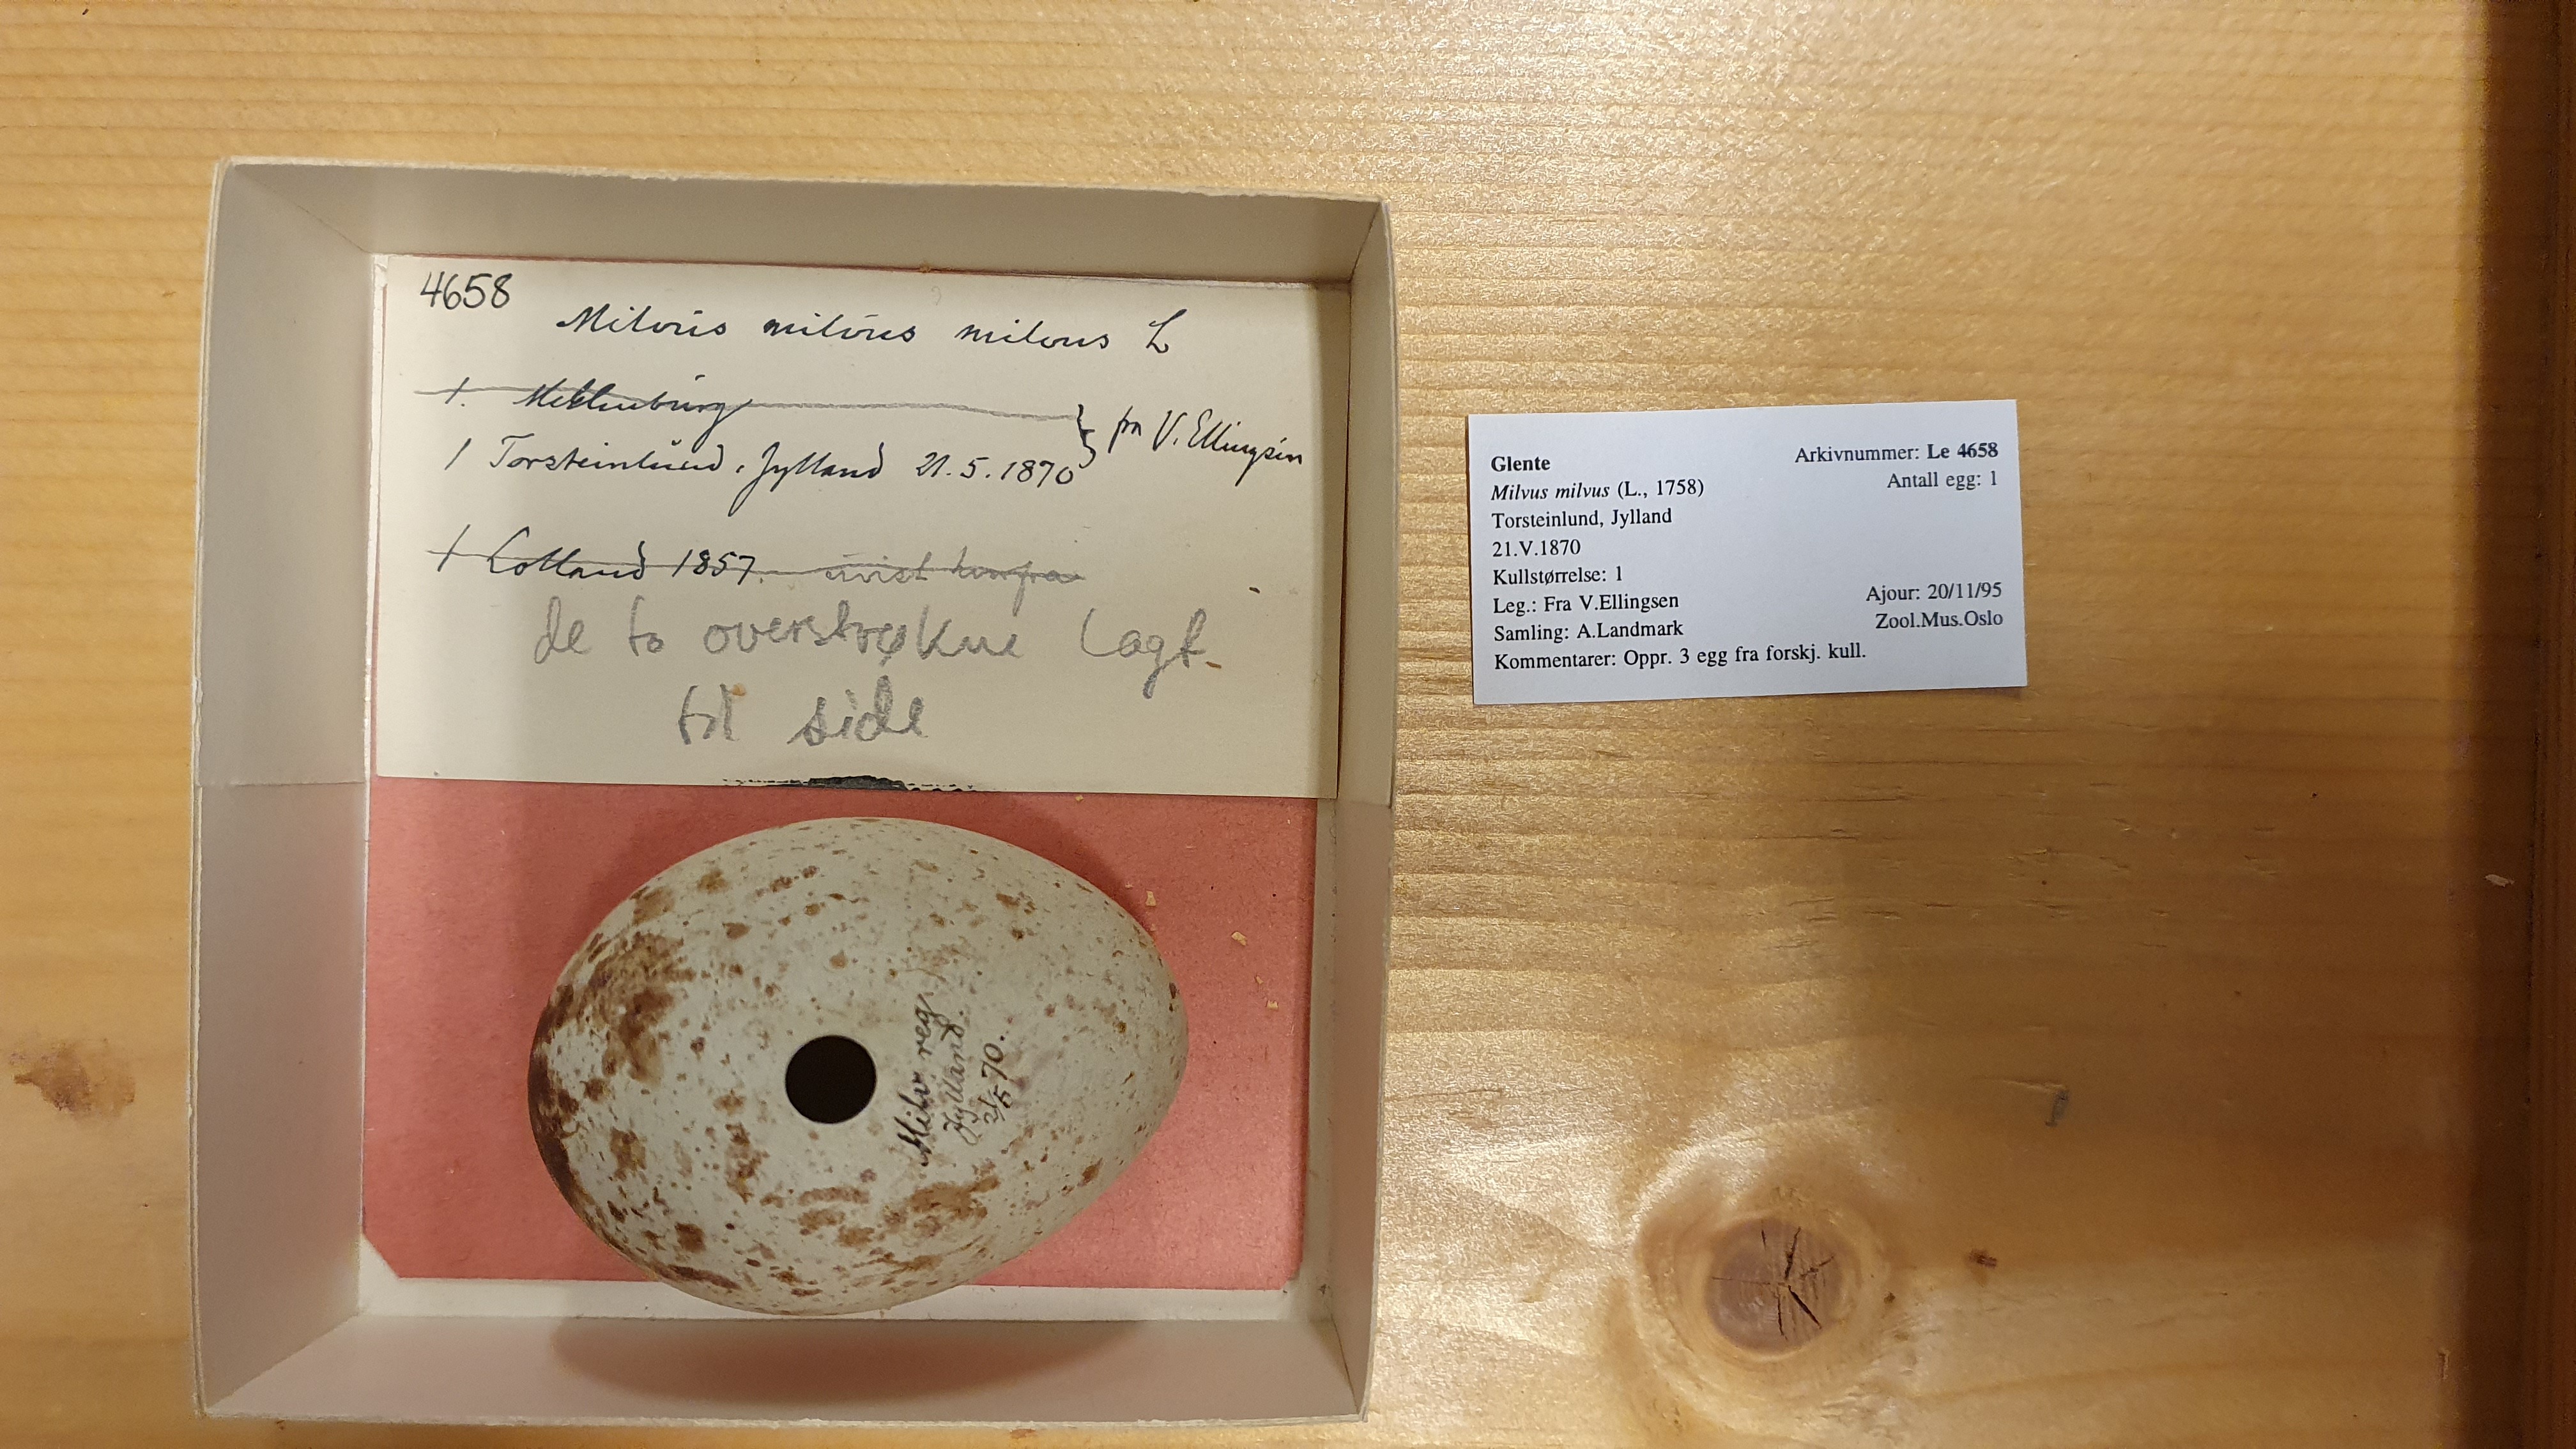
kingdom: Animalia
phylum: Chordata
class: Aves
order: Accipitriformes
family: Accipitridae
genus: Milvus
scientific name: Milvus milvus
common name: Red kite
